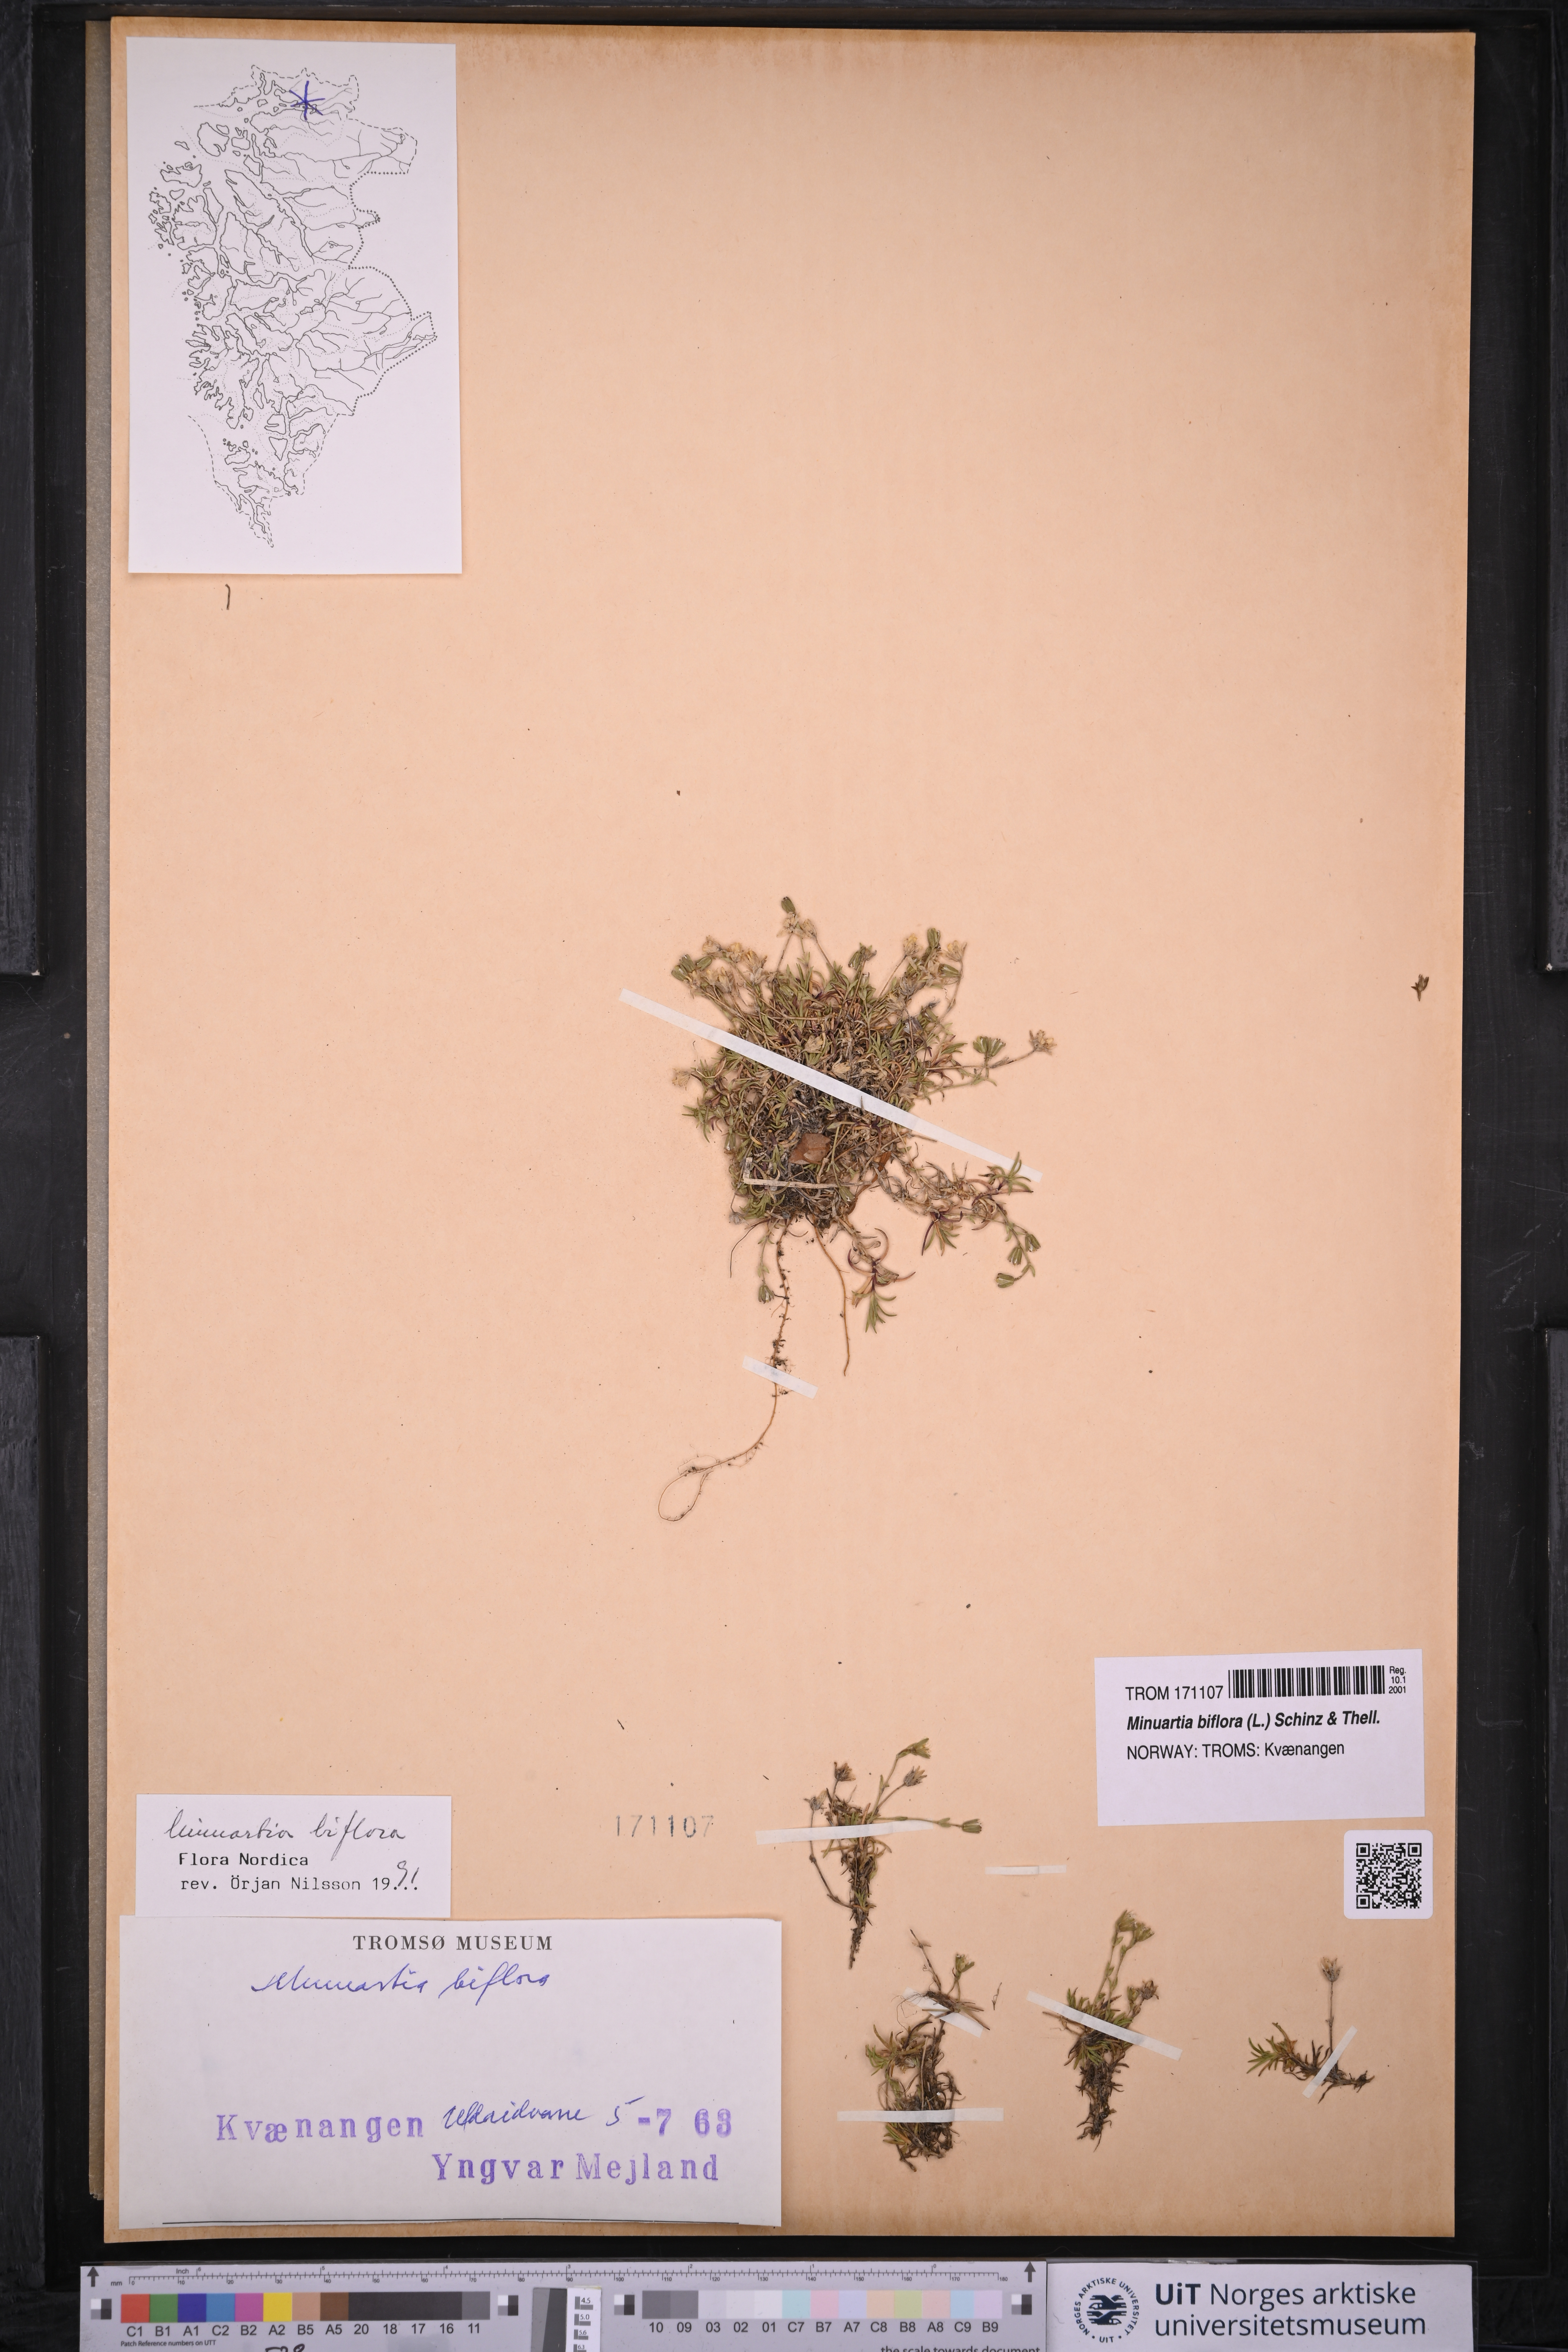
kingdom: Plantae
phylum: Tracheophyta
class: Magnoliopsida
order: Caryophyllales
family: Caryophyllaceae
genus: Cherleria
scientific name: Cherleria biflora
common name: Mountain sandwort
